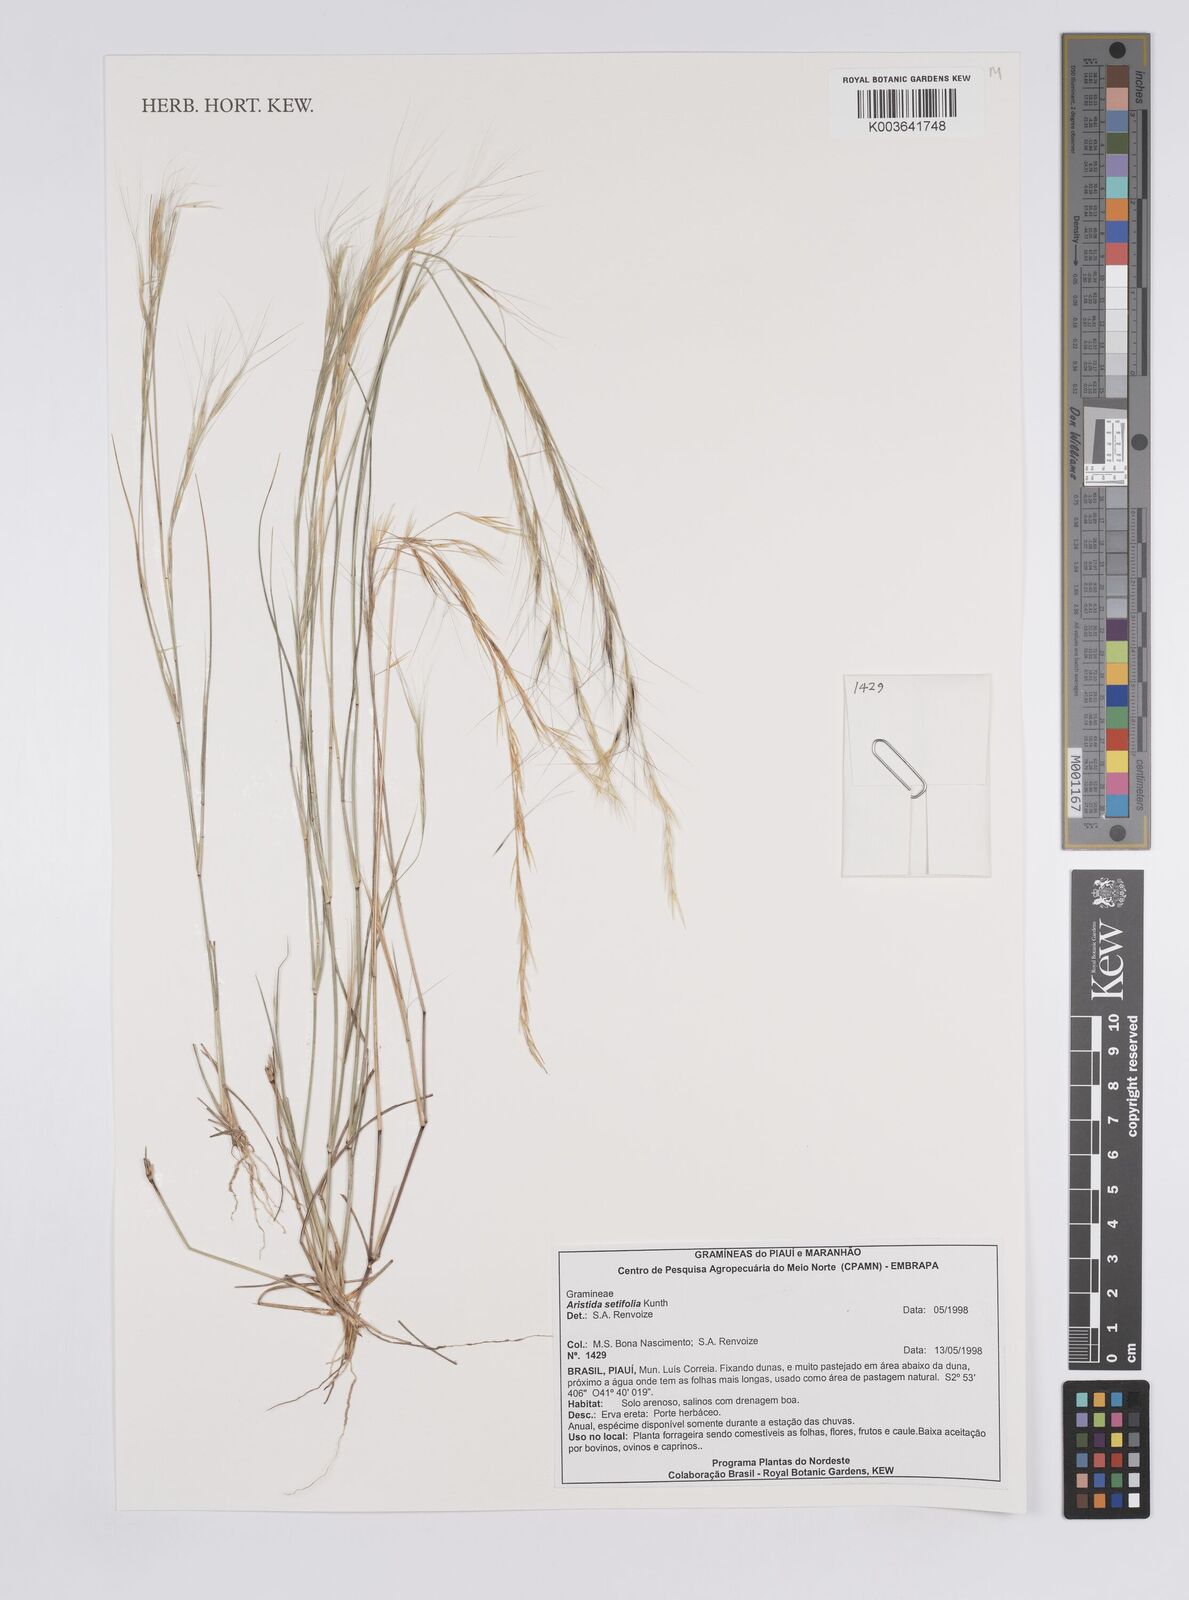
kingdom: Plantae
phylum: Tracheophyta
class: Liliopsida
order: Poales
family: Poaceae
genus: Aristida
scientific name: Aristida setifolia
